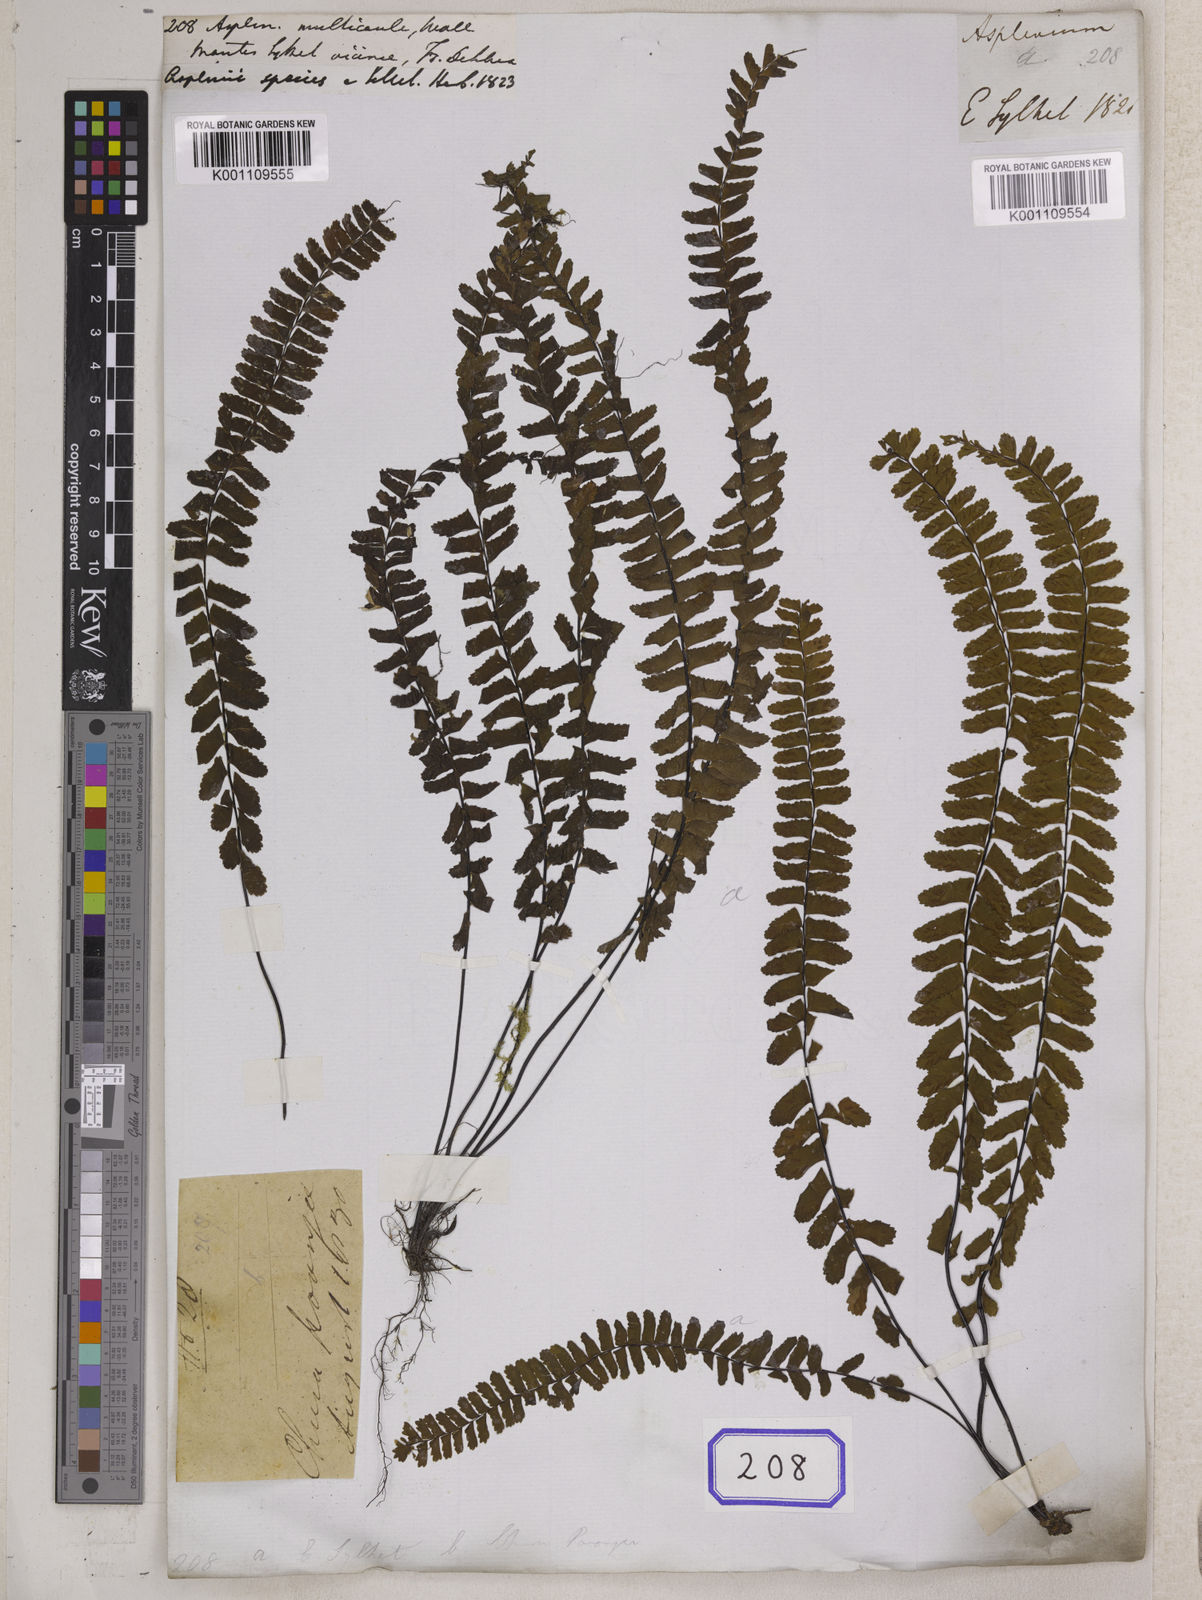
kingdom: Plantae
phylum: Tracheophyta
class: Polypodiopsida
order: Polypodiales
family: Aspleniaceae
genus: Asplenium
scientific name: Asplenium normale
